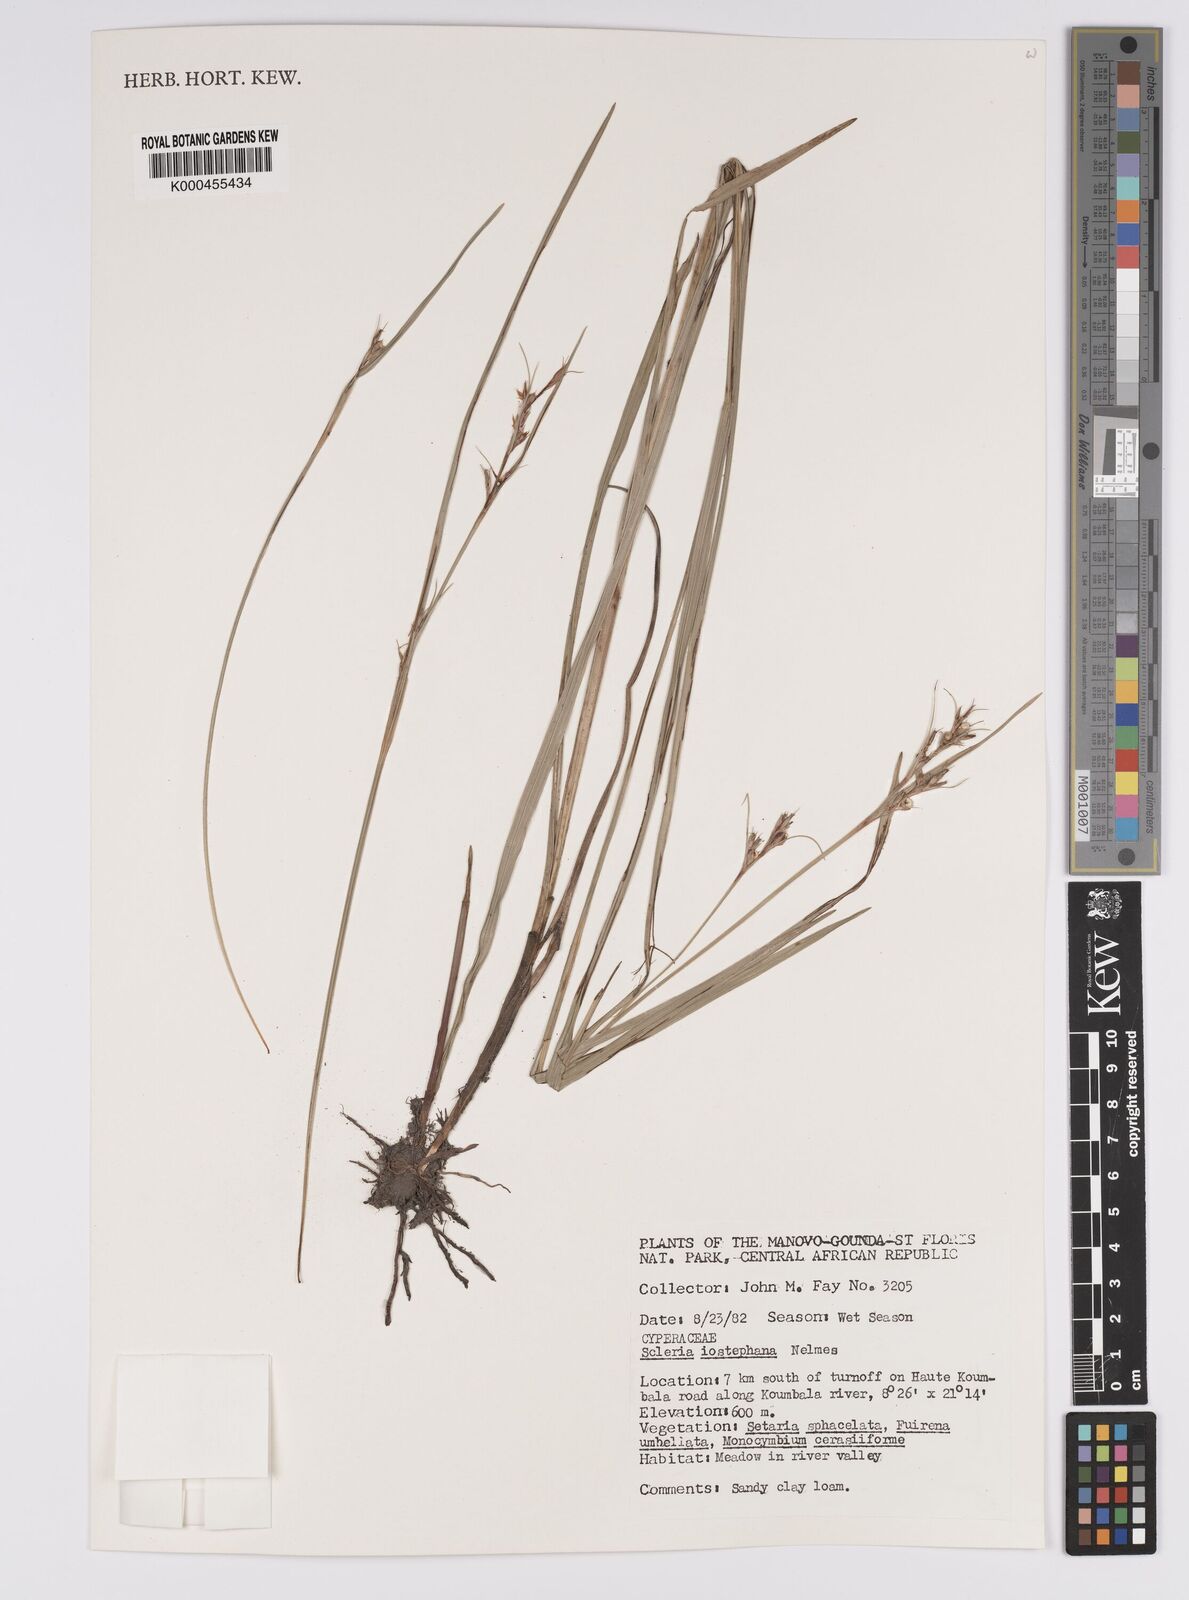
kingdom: Plantae
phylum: Tracheophyta
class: Liliopsida
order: Poales
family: Cyperaceae
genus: Scleria
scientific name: Scleria iostephana
